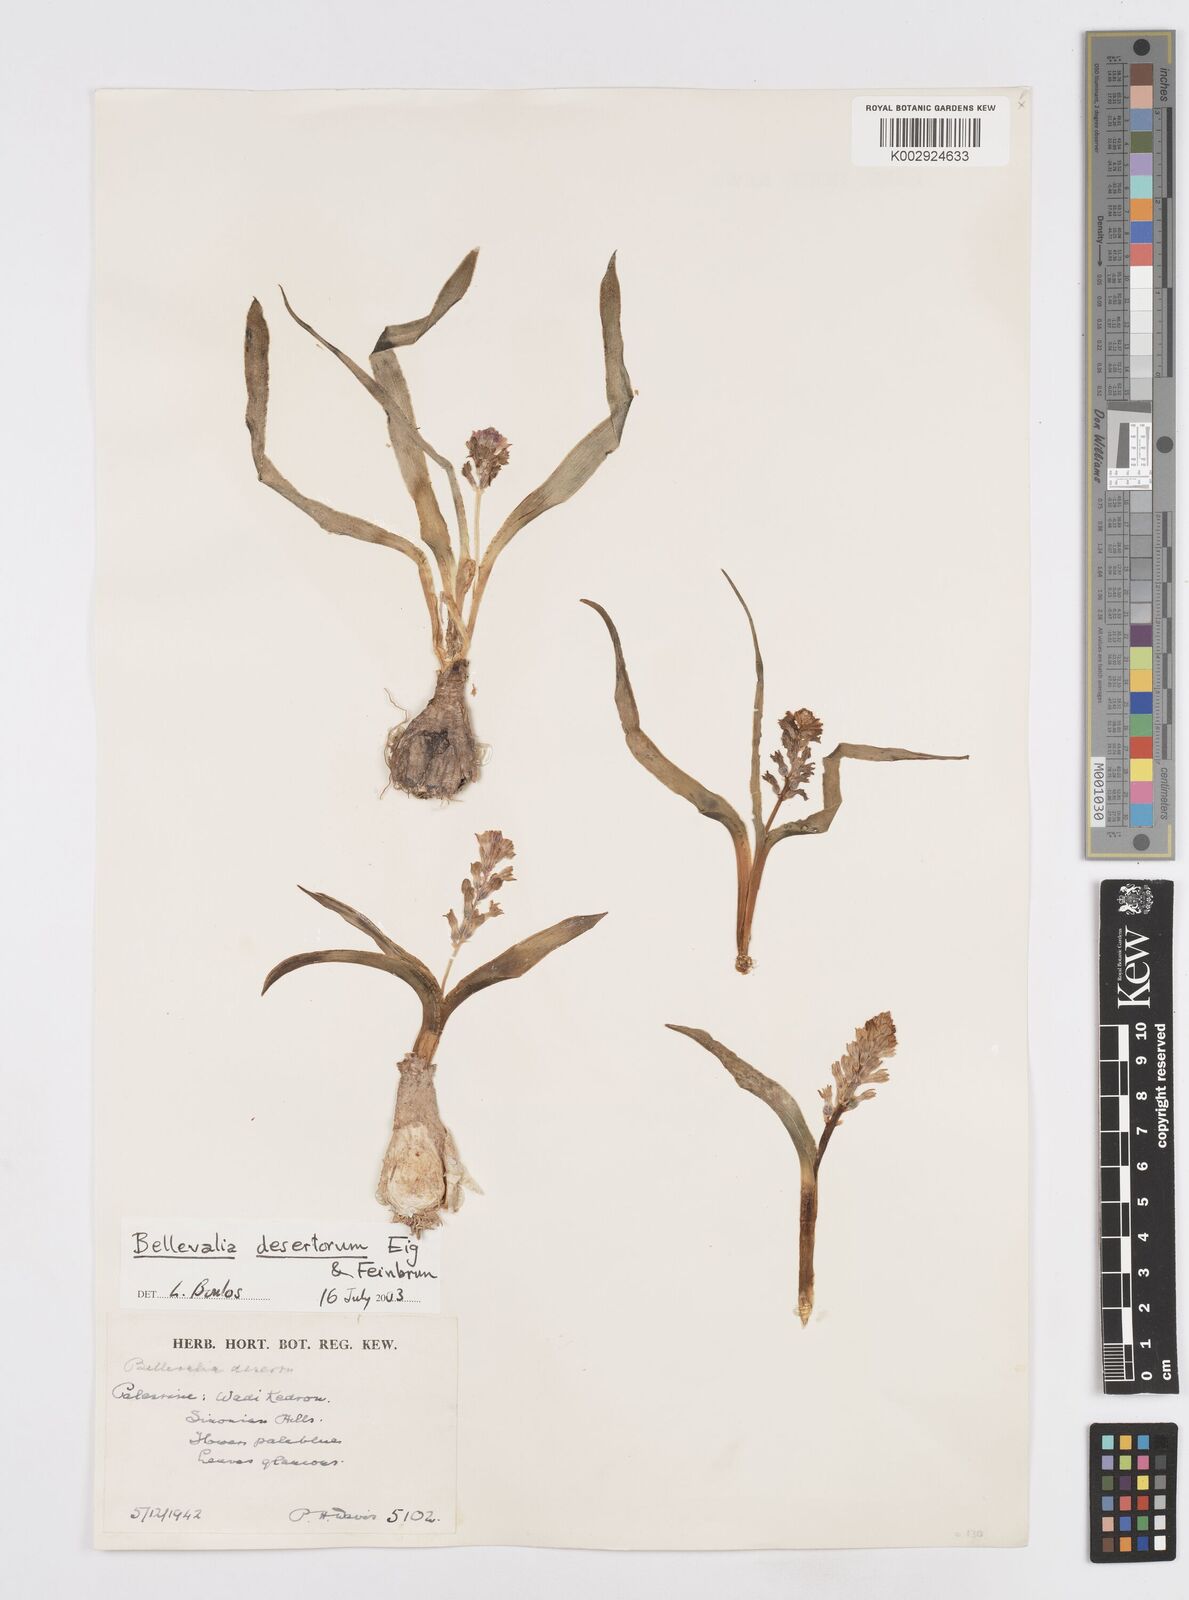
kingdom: Plantae
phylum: Tracheophyta
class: Liliopsida
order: Asparagales
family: Asparagaceae
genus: Bellevalia
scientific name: Bellevalia desertorum
